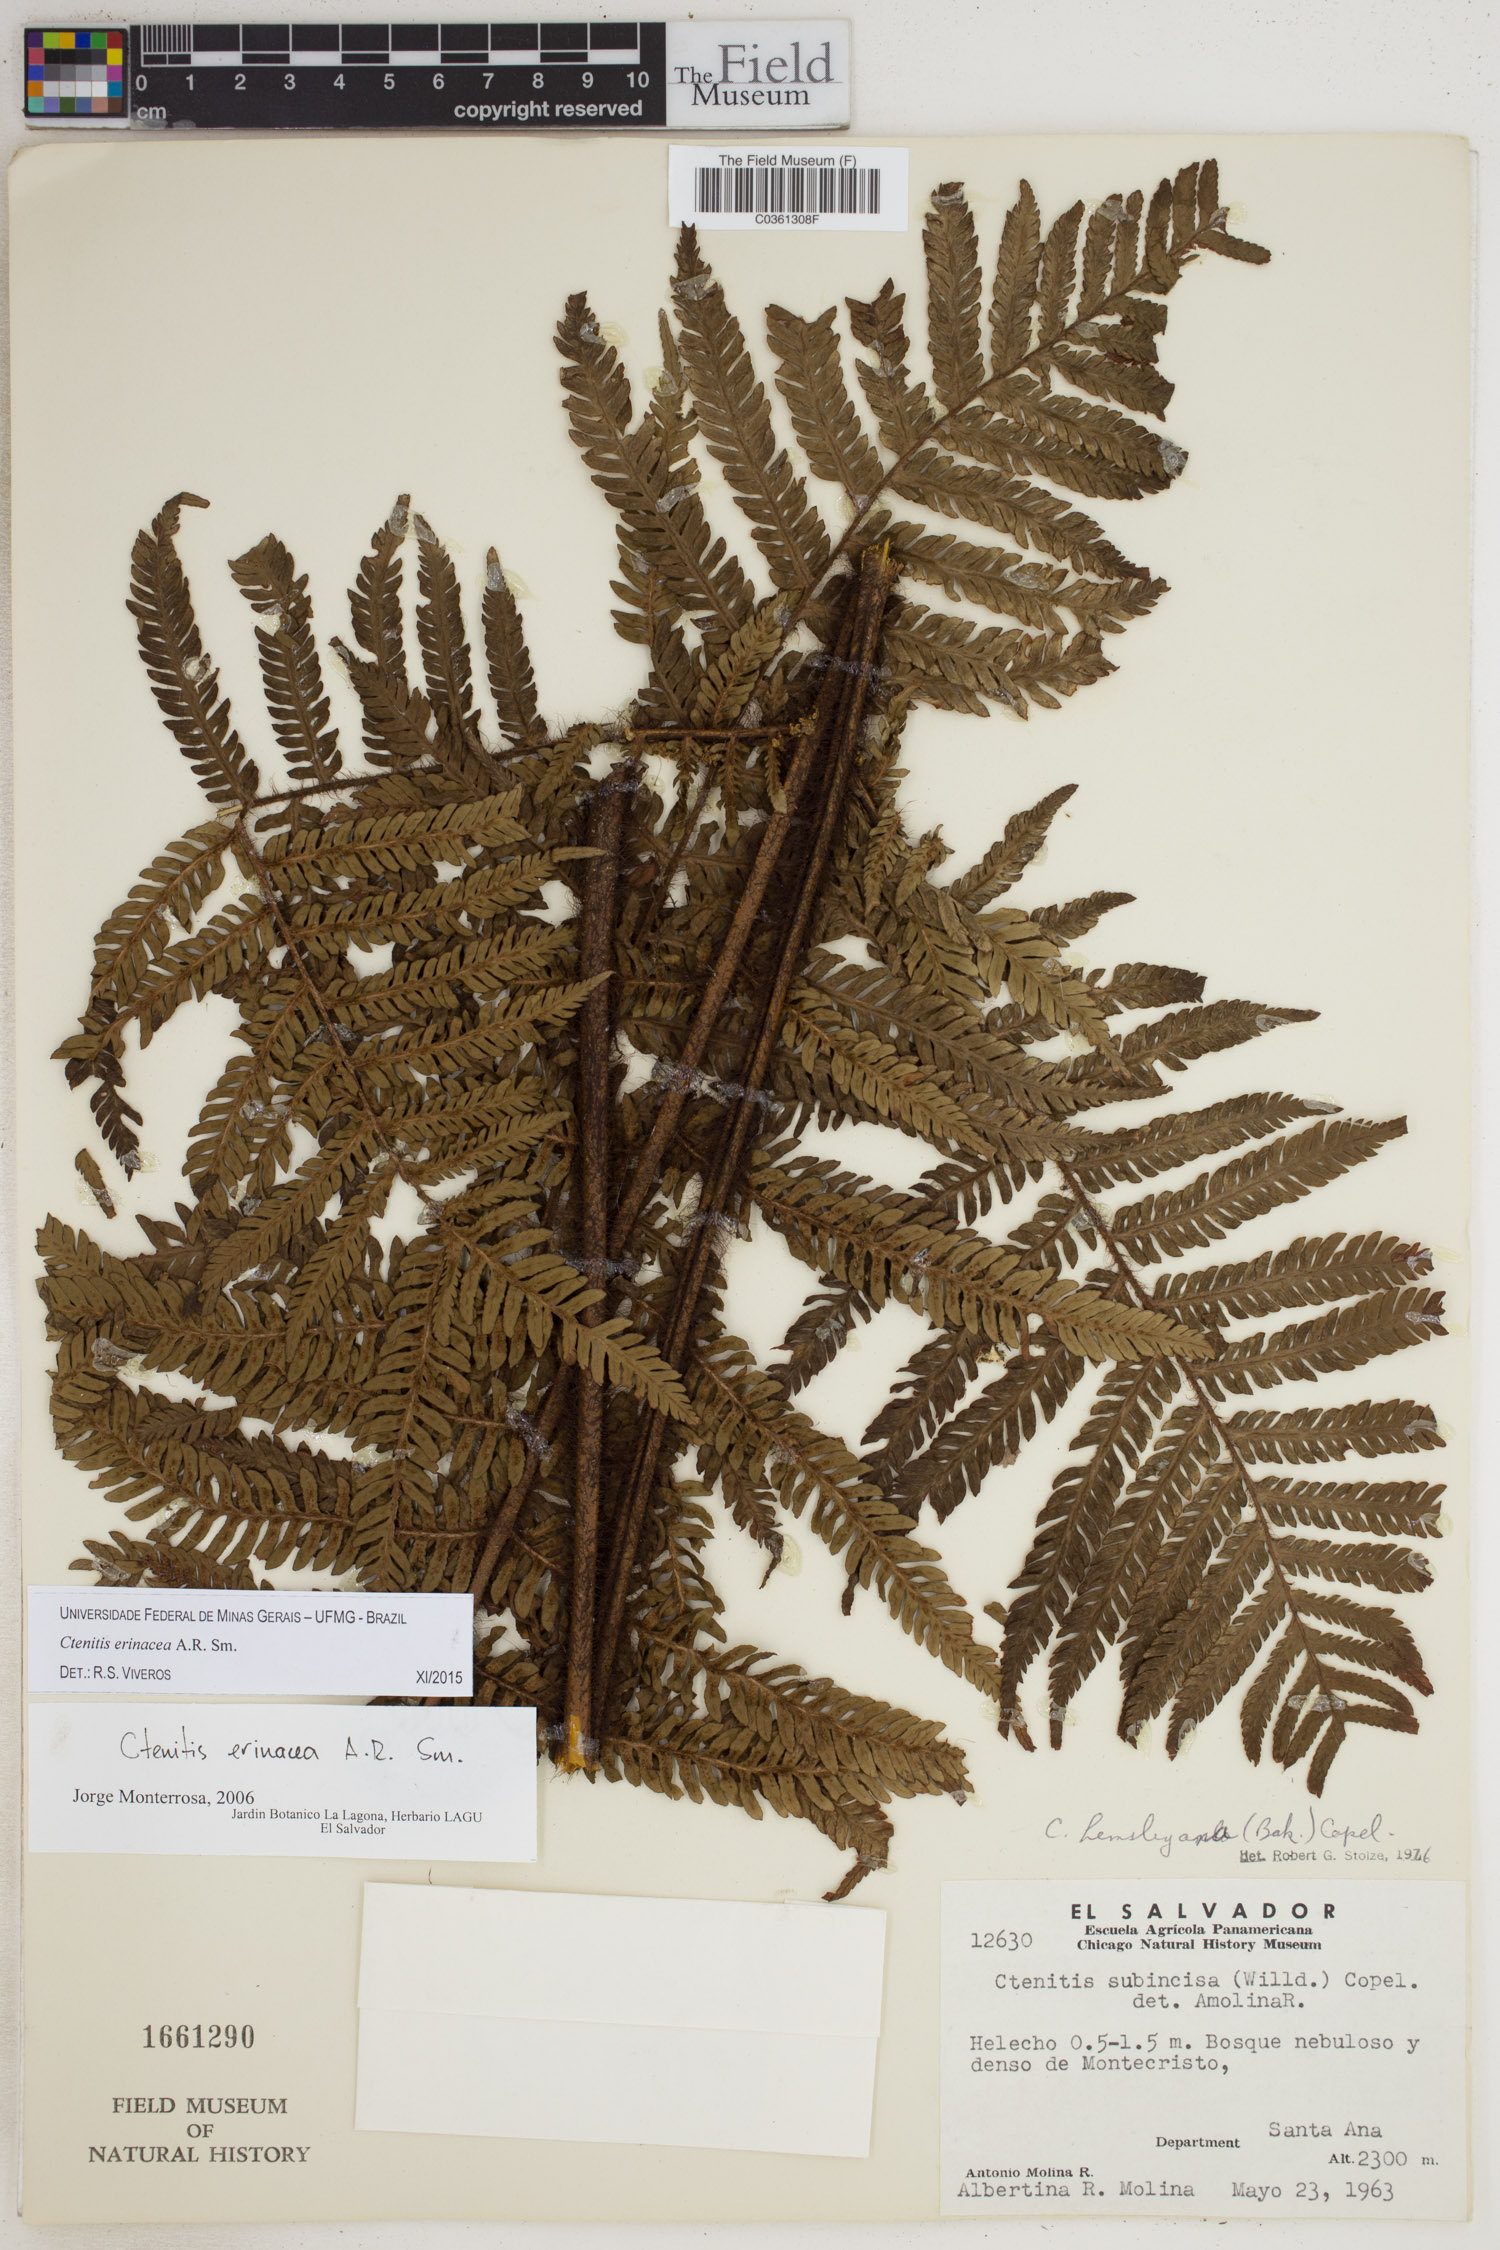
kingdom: Plantae
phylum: Tracheophyta
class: Polypodiopsida
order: Polypodiales
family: Dryopteridaceae
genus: Ctenitis
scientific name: Ctenitis erinacea
